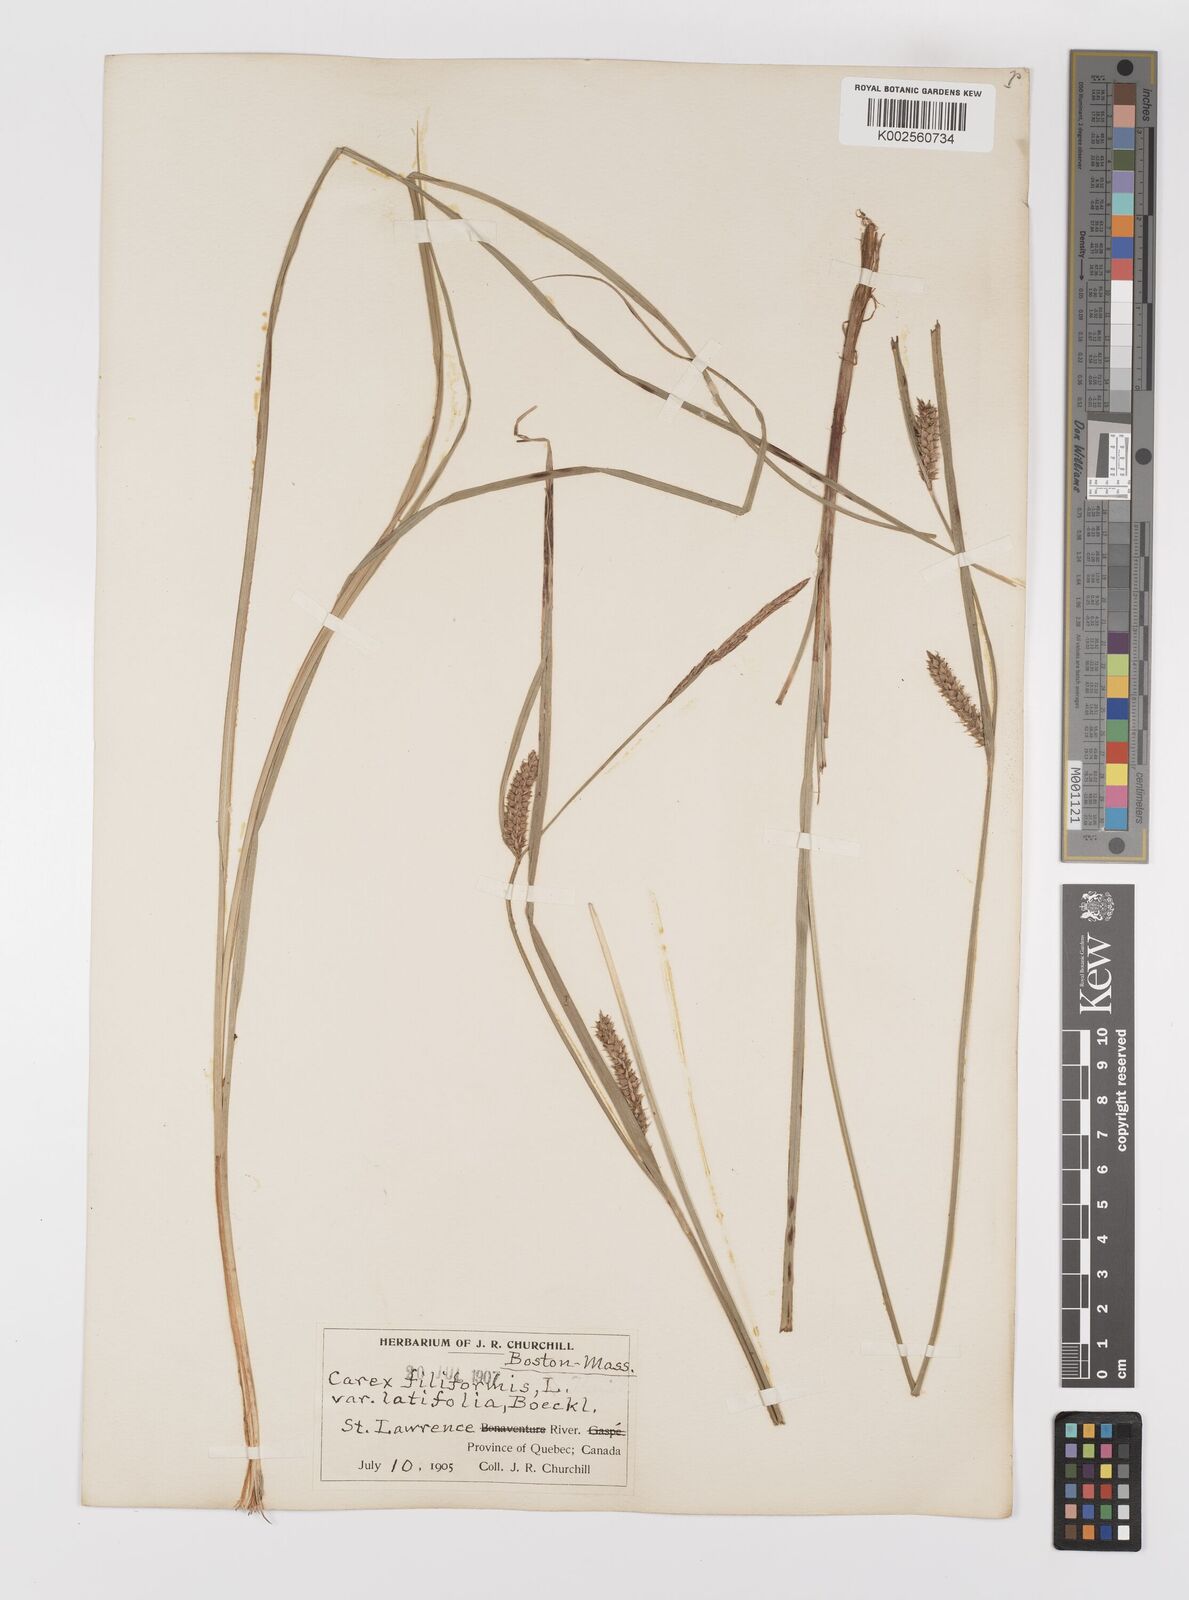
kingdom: Plantae
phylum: Tracheophyta
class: Liliopsida
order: Poales
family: Cyperaceae
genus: Carex
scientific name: Carex lasiocarpa
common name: Slender sedge
